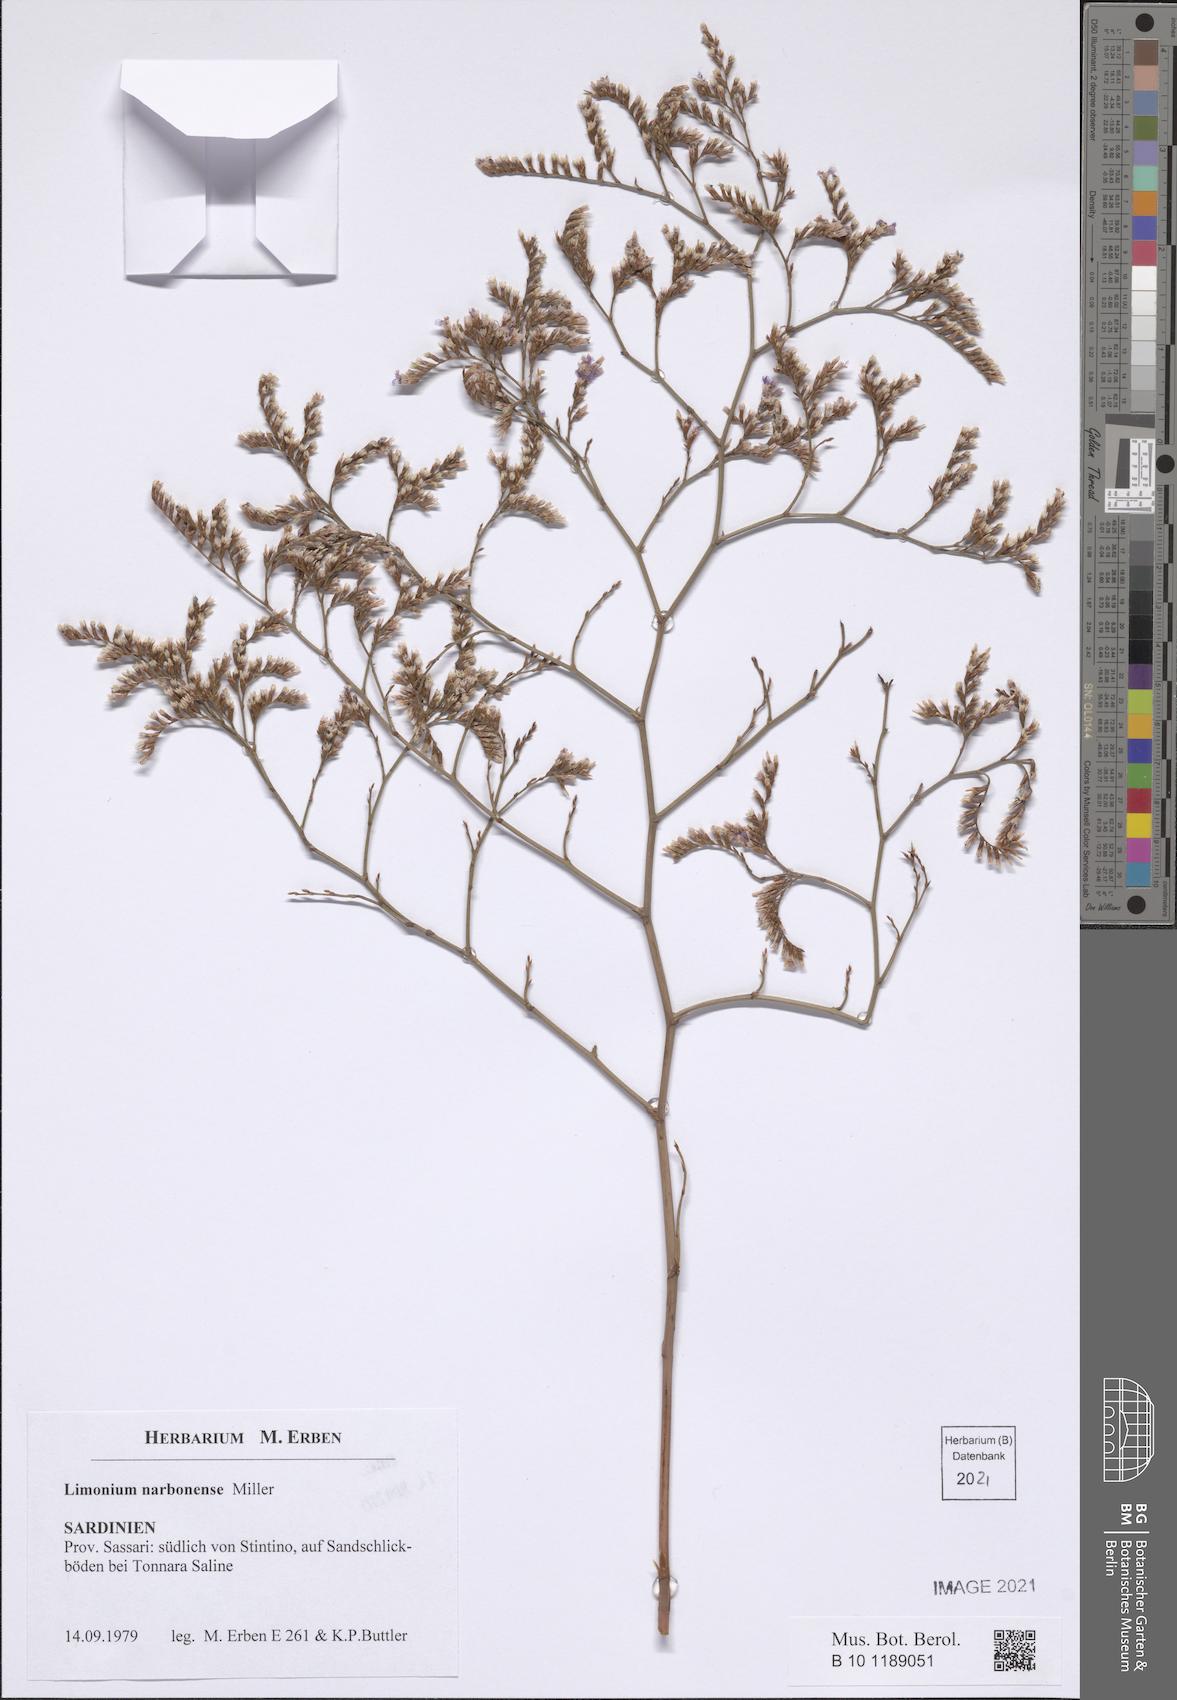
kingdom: Plantae
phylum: Tracheophyta
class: Magnoliopsida
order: Caryophyllales
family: Plumbaginaceae
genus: Limonium
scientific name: Limonium narbonense
